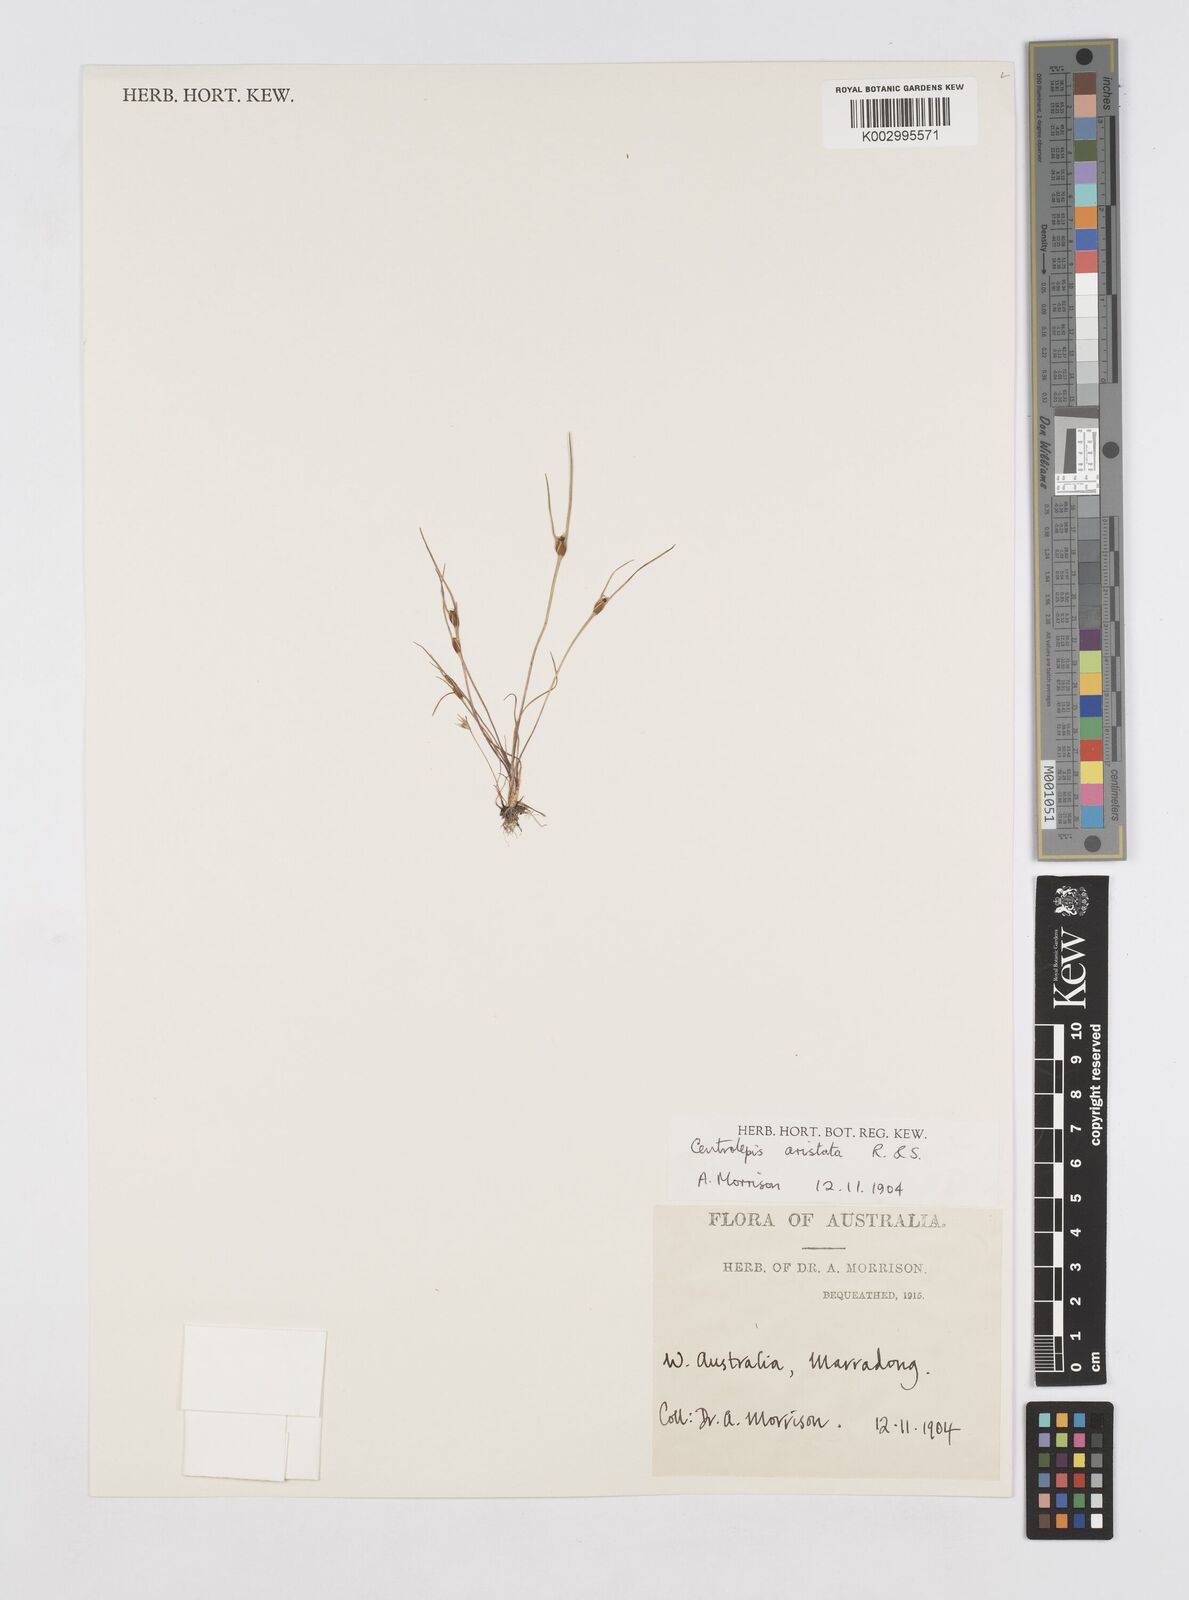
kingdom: Plantae
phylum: Tracheophyta
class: Liliopsida
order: Poales
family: Restionaceae
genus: Centrolepis
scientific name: Centrolepis aristata
